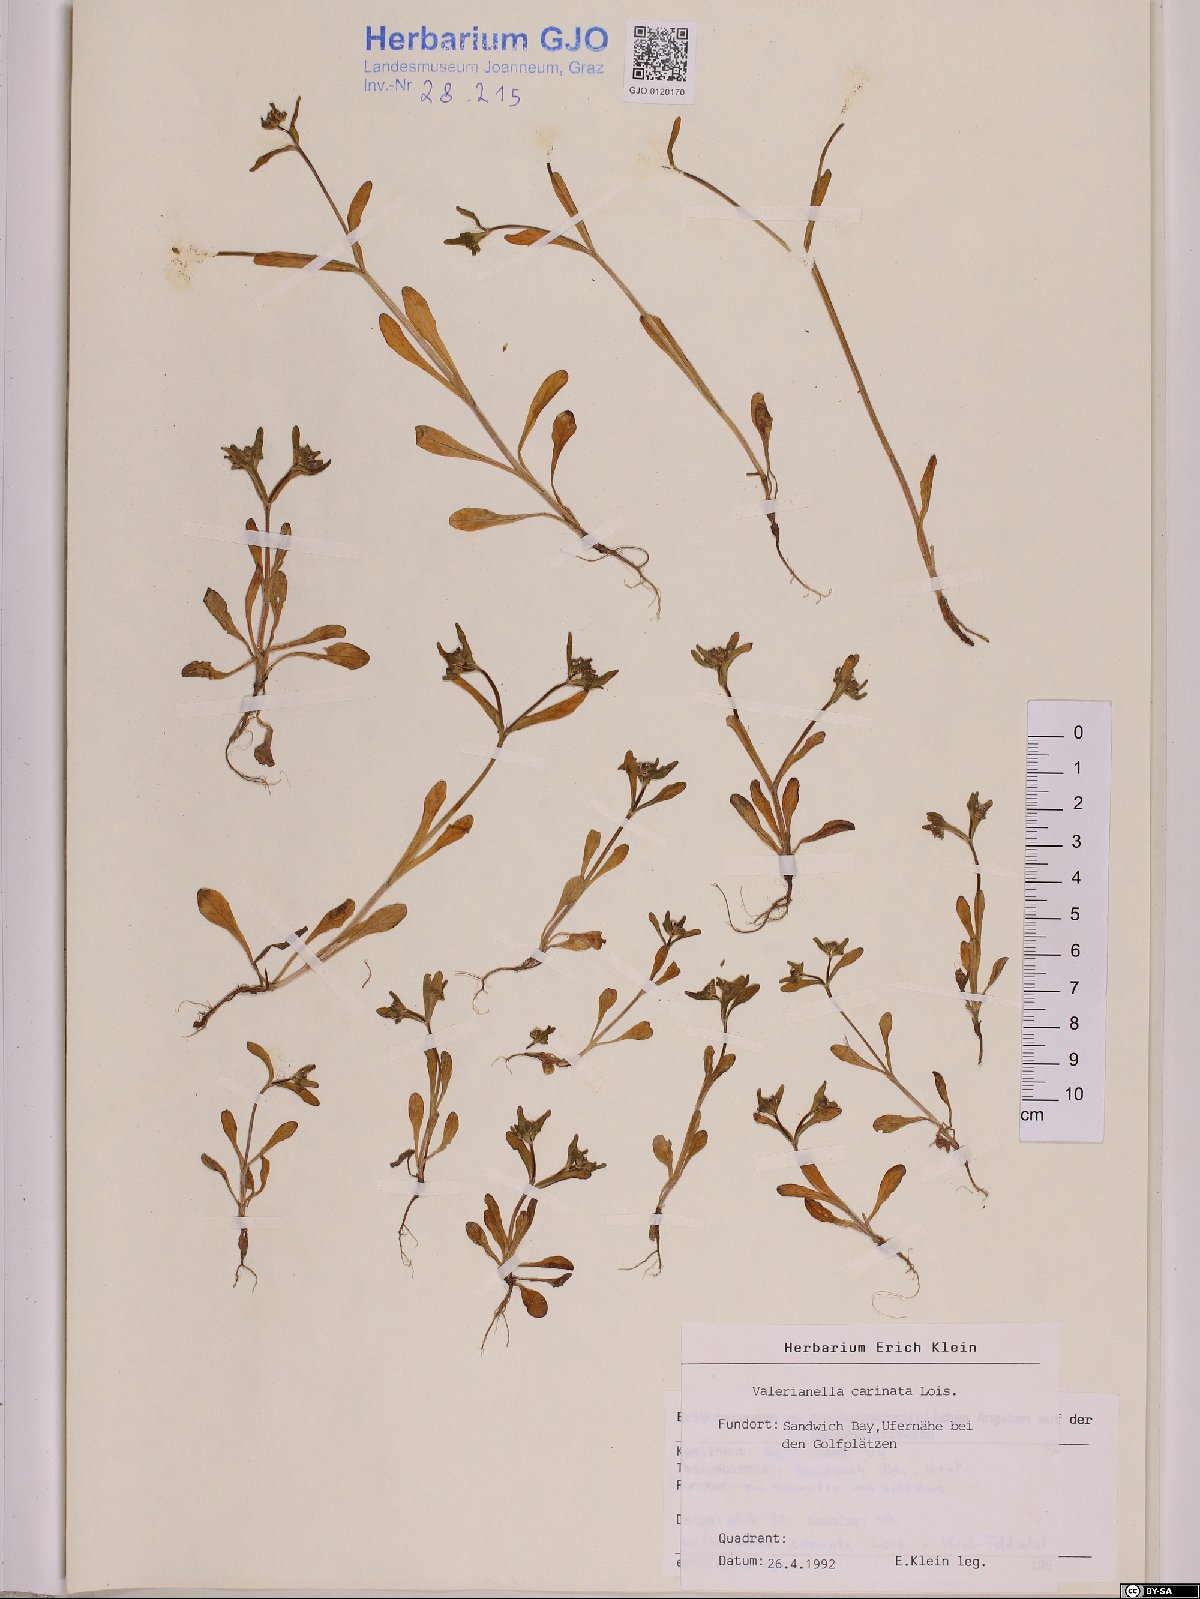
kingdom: Plantae
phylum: Tracheophyta
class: Magnoliopsida
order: Dipsacales
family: Caprifoliaceae
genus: Valerianella
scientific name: Valerianella carinata
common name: Keeled-fruited cornsalad
